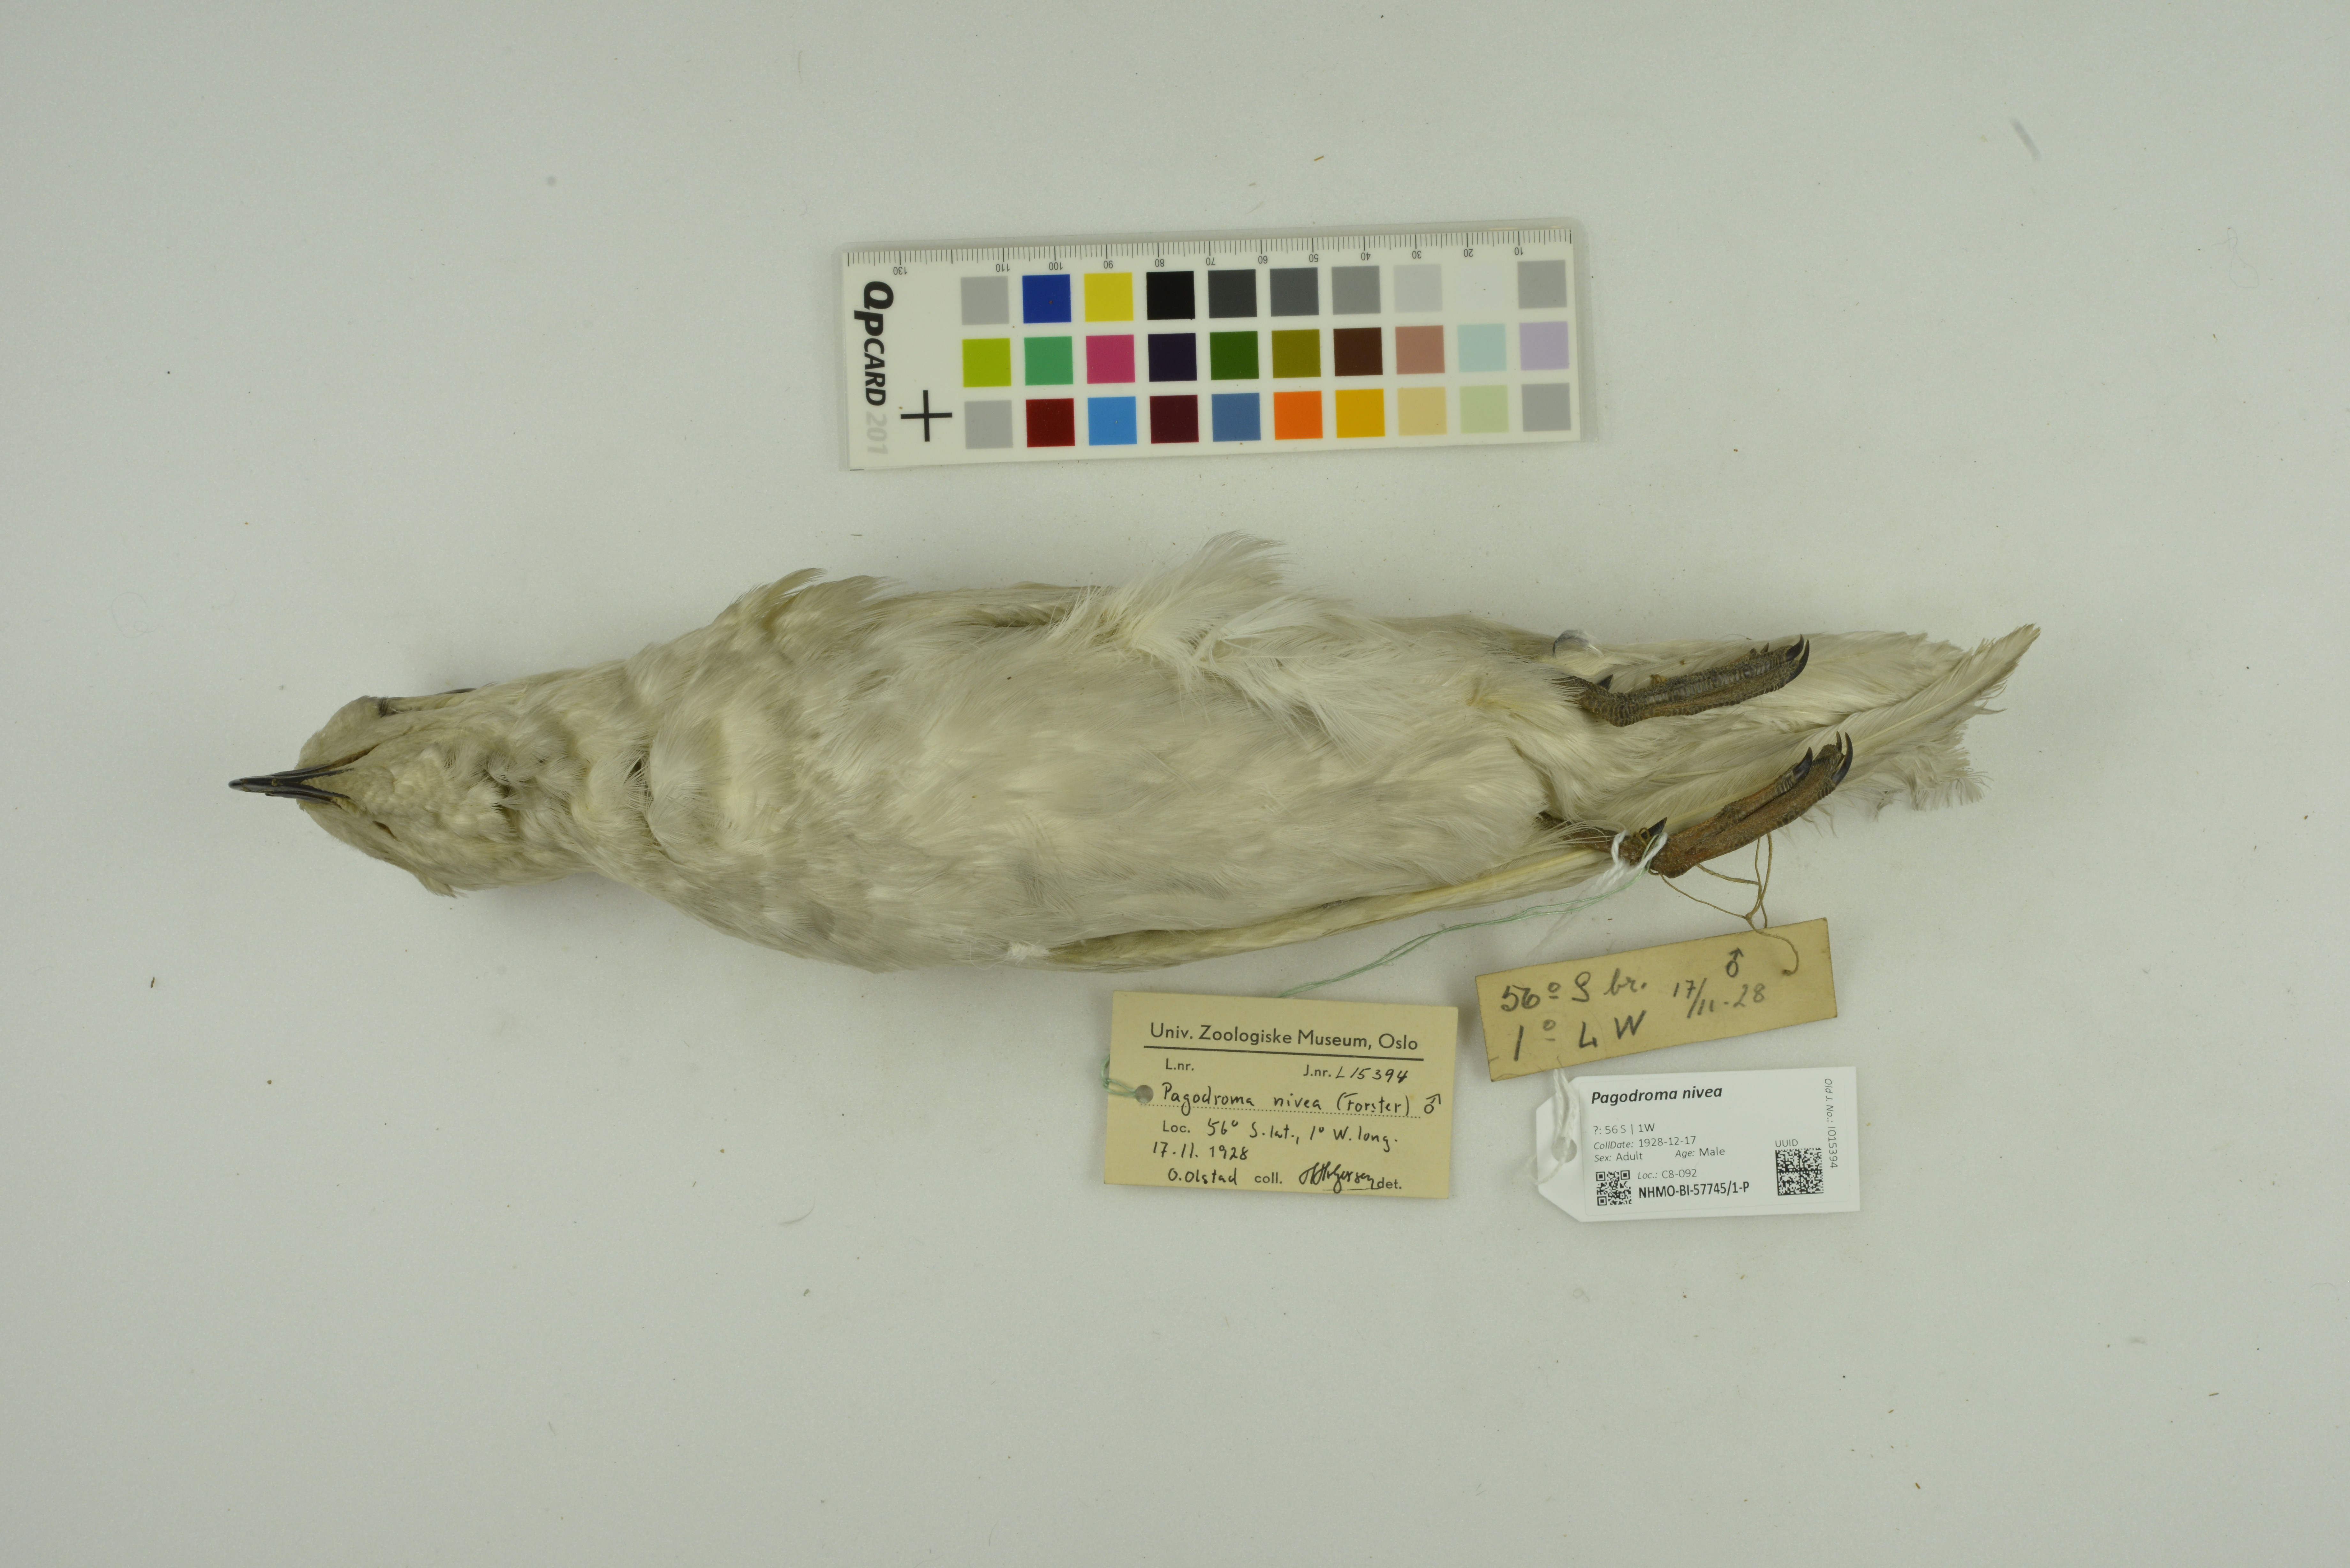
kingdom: Animalia
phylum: Chordata
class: Aves
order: Procellariiformes
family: Procellariidae
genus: Pagodroma
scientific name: Pagodroma nivea
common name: Snow petrel
